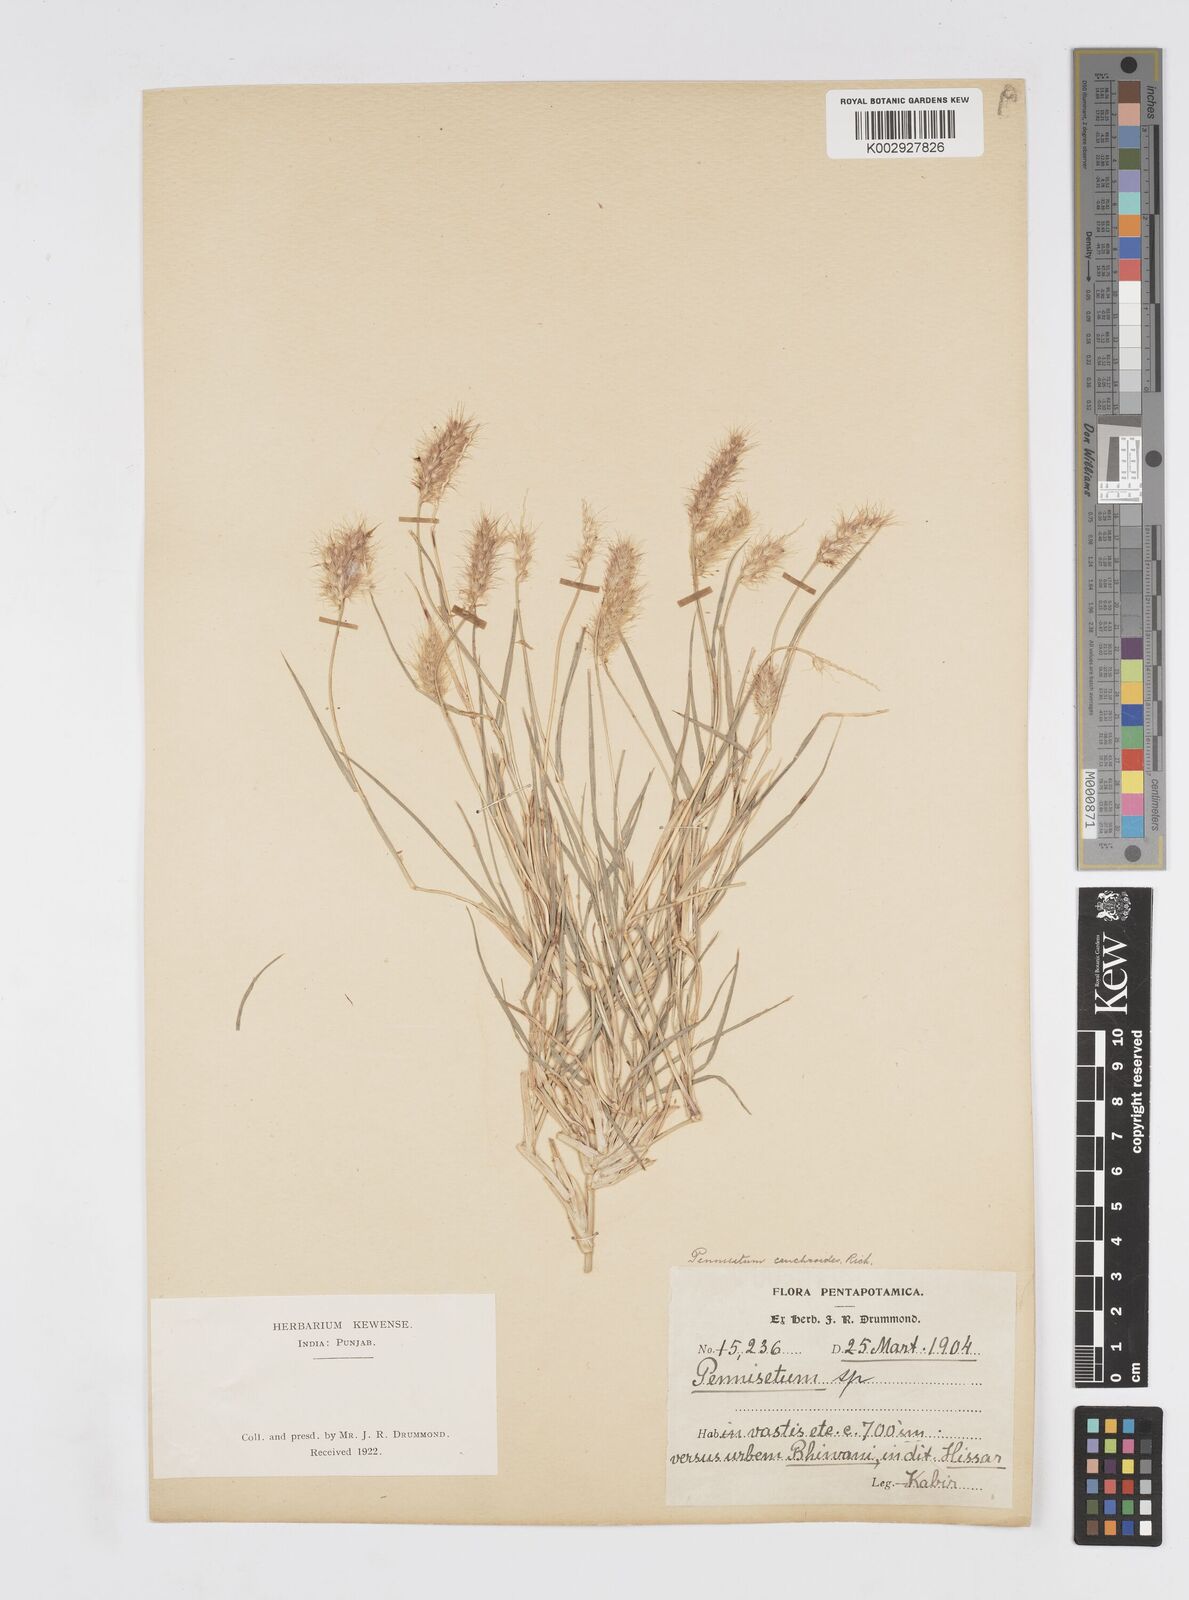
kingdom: Plantae
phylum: Tracheophyta
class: Liliopsida
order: Poales
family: Poaceae
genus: Cenchrus
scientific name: Cenchrus ciliaris
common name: Buffelgrass
